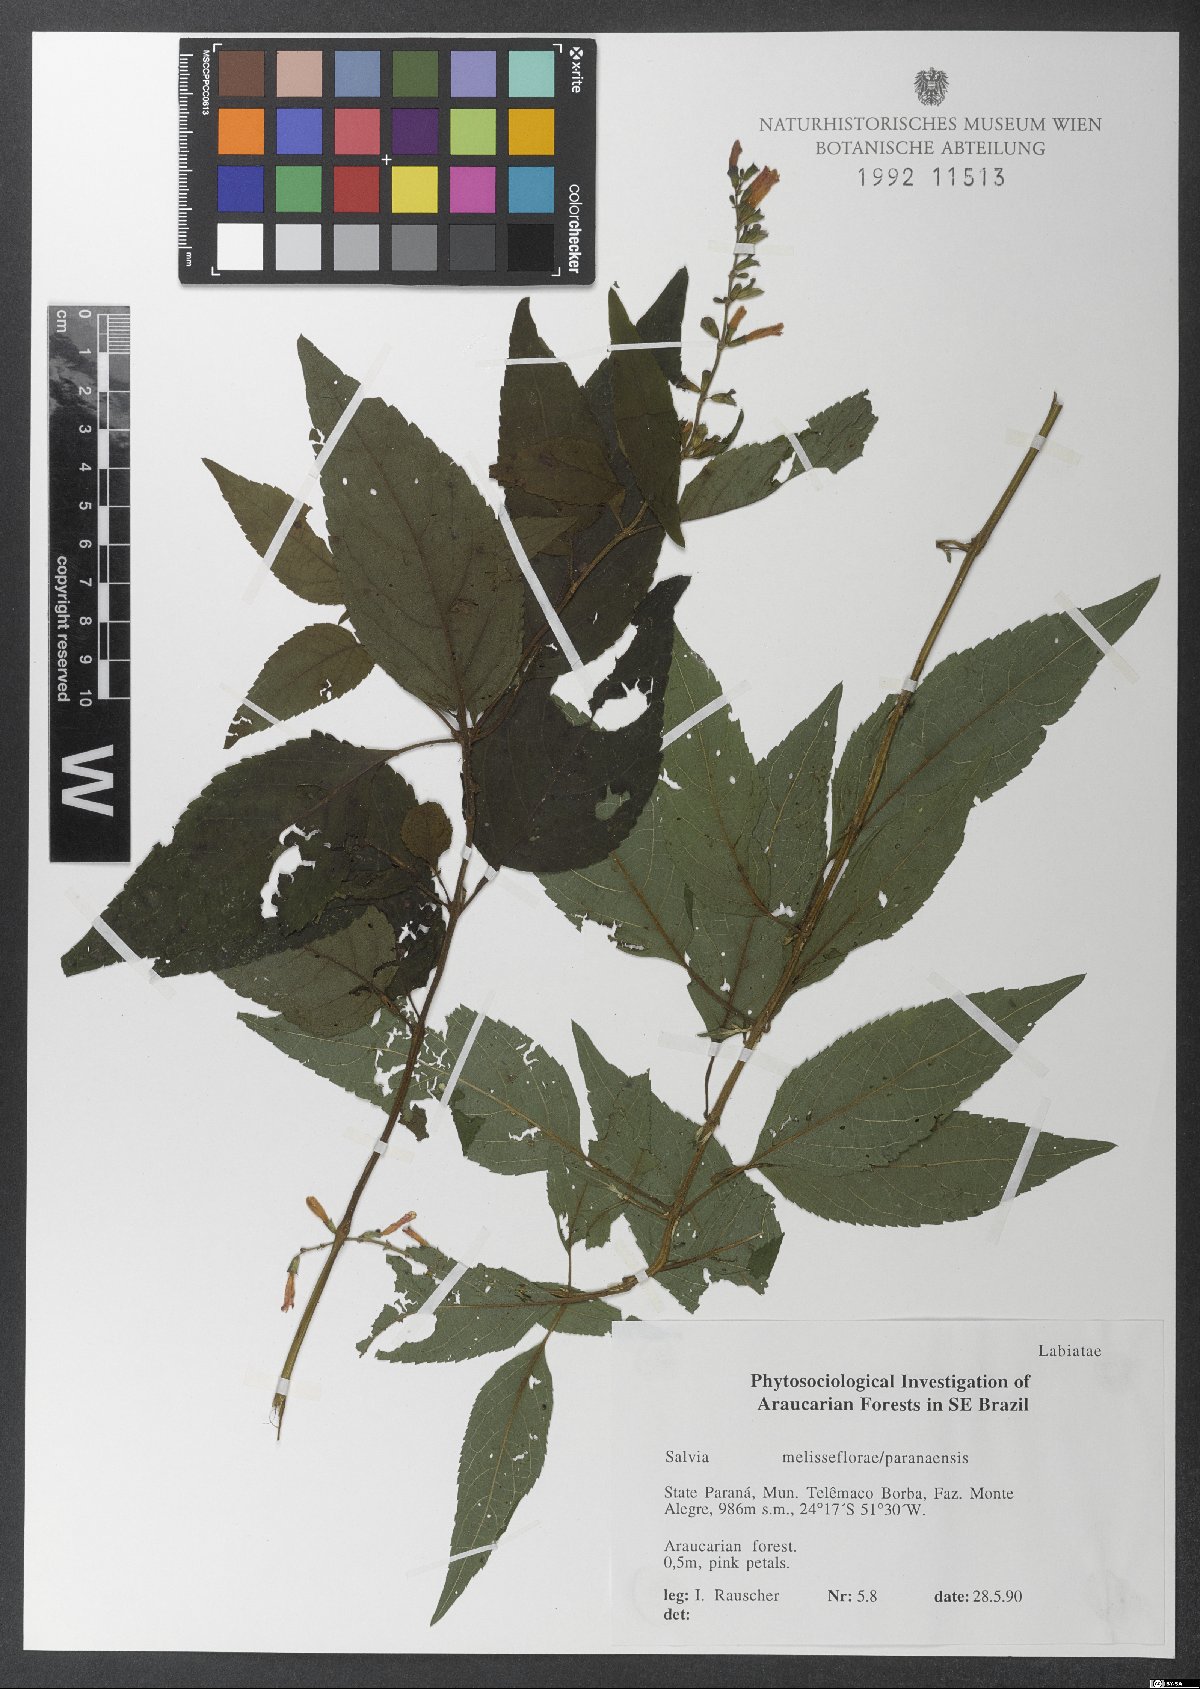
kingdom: Plantae
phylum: Tracheophyta
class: Magnoliopsida
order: Lamiales
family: Lamiaceae
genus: Salvia
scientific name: Salvia melissiflora
